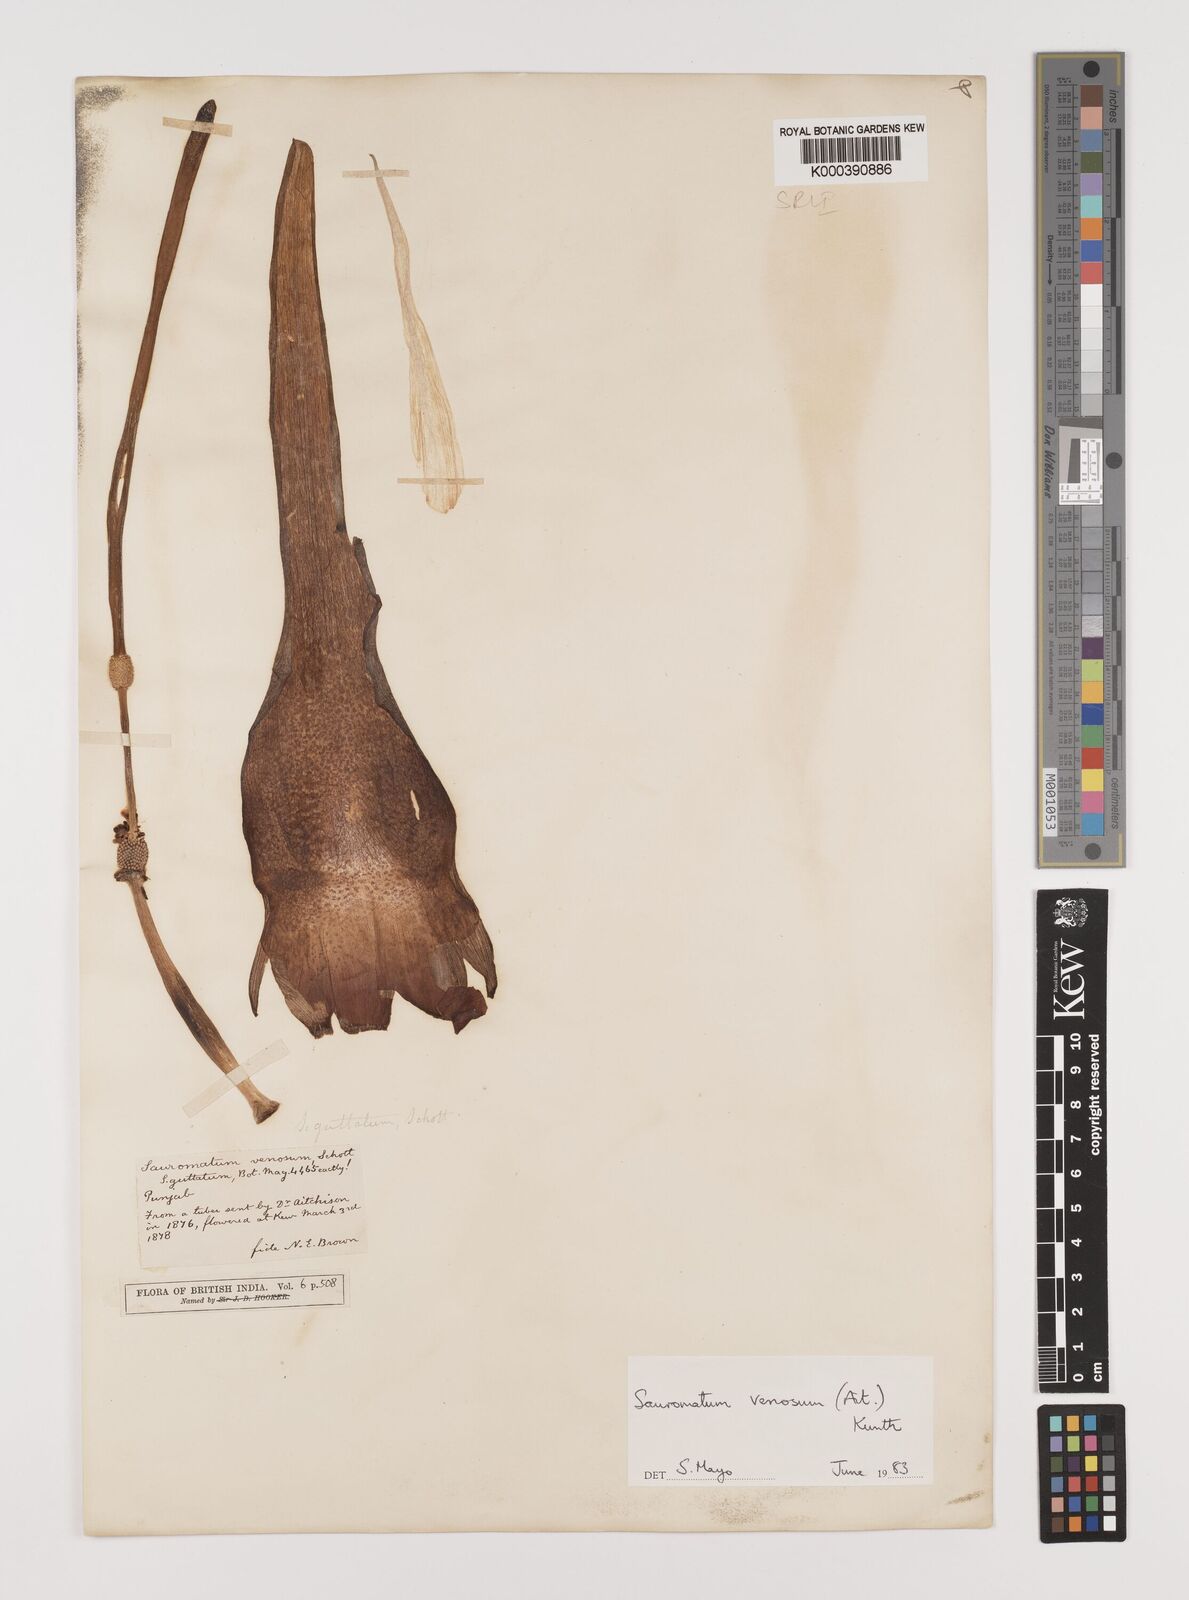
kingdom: Plantae
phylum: Tracheophyta
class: Liliopsida
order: Alismatales
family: Araceae
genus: Sauromatum
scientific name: Sauromatum venosum
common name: Voodoo lily
